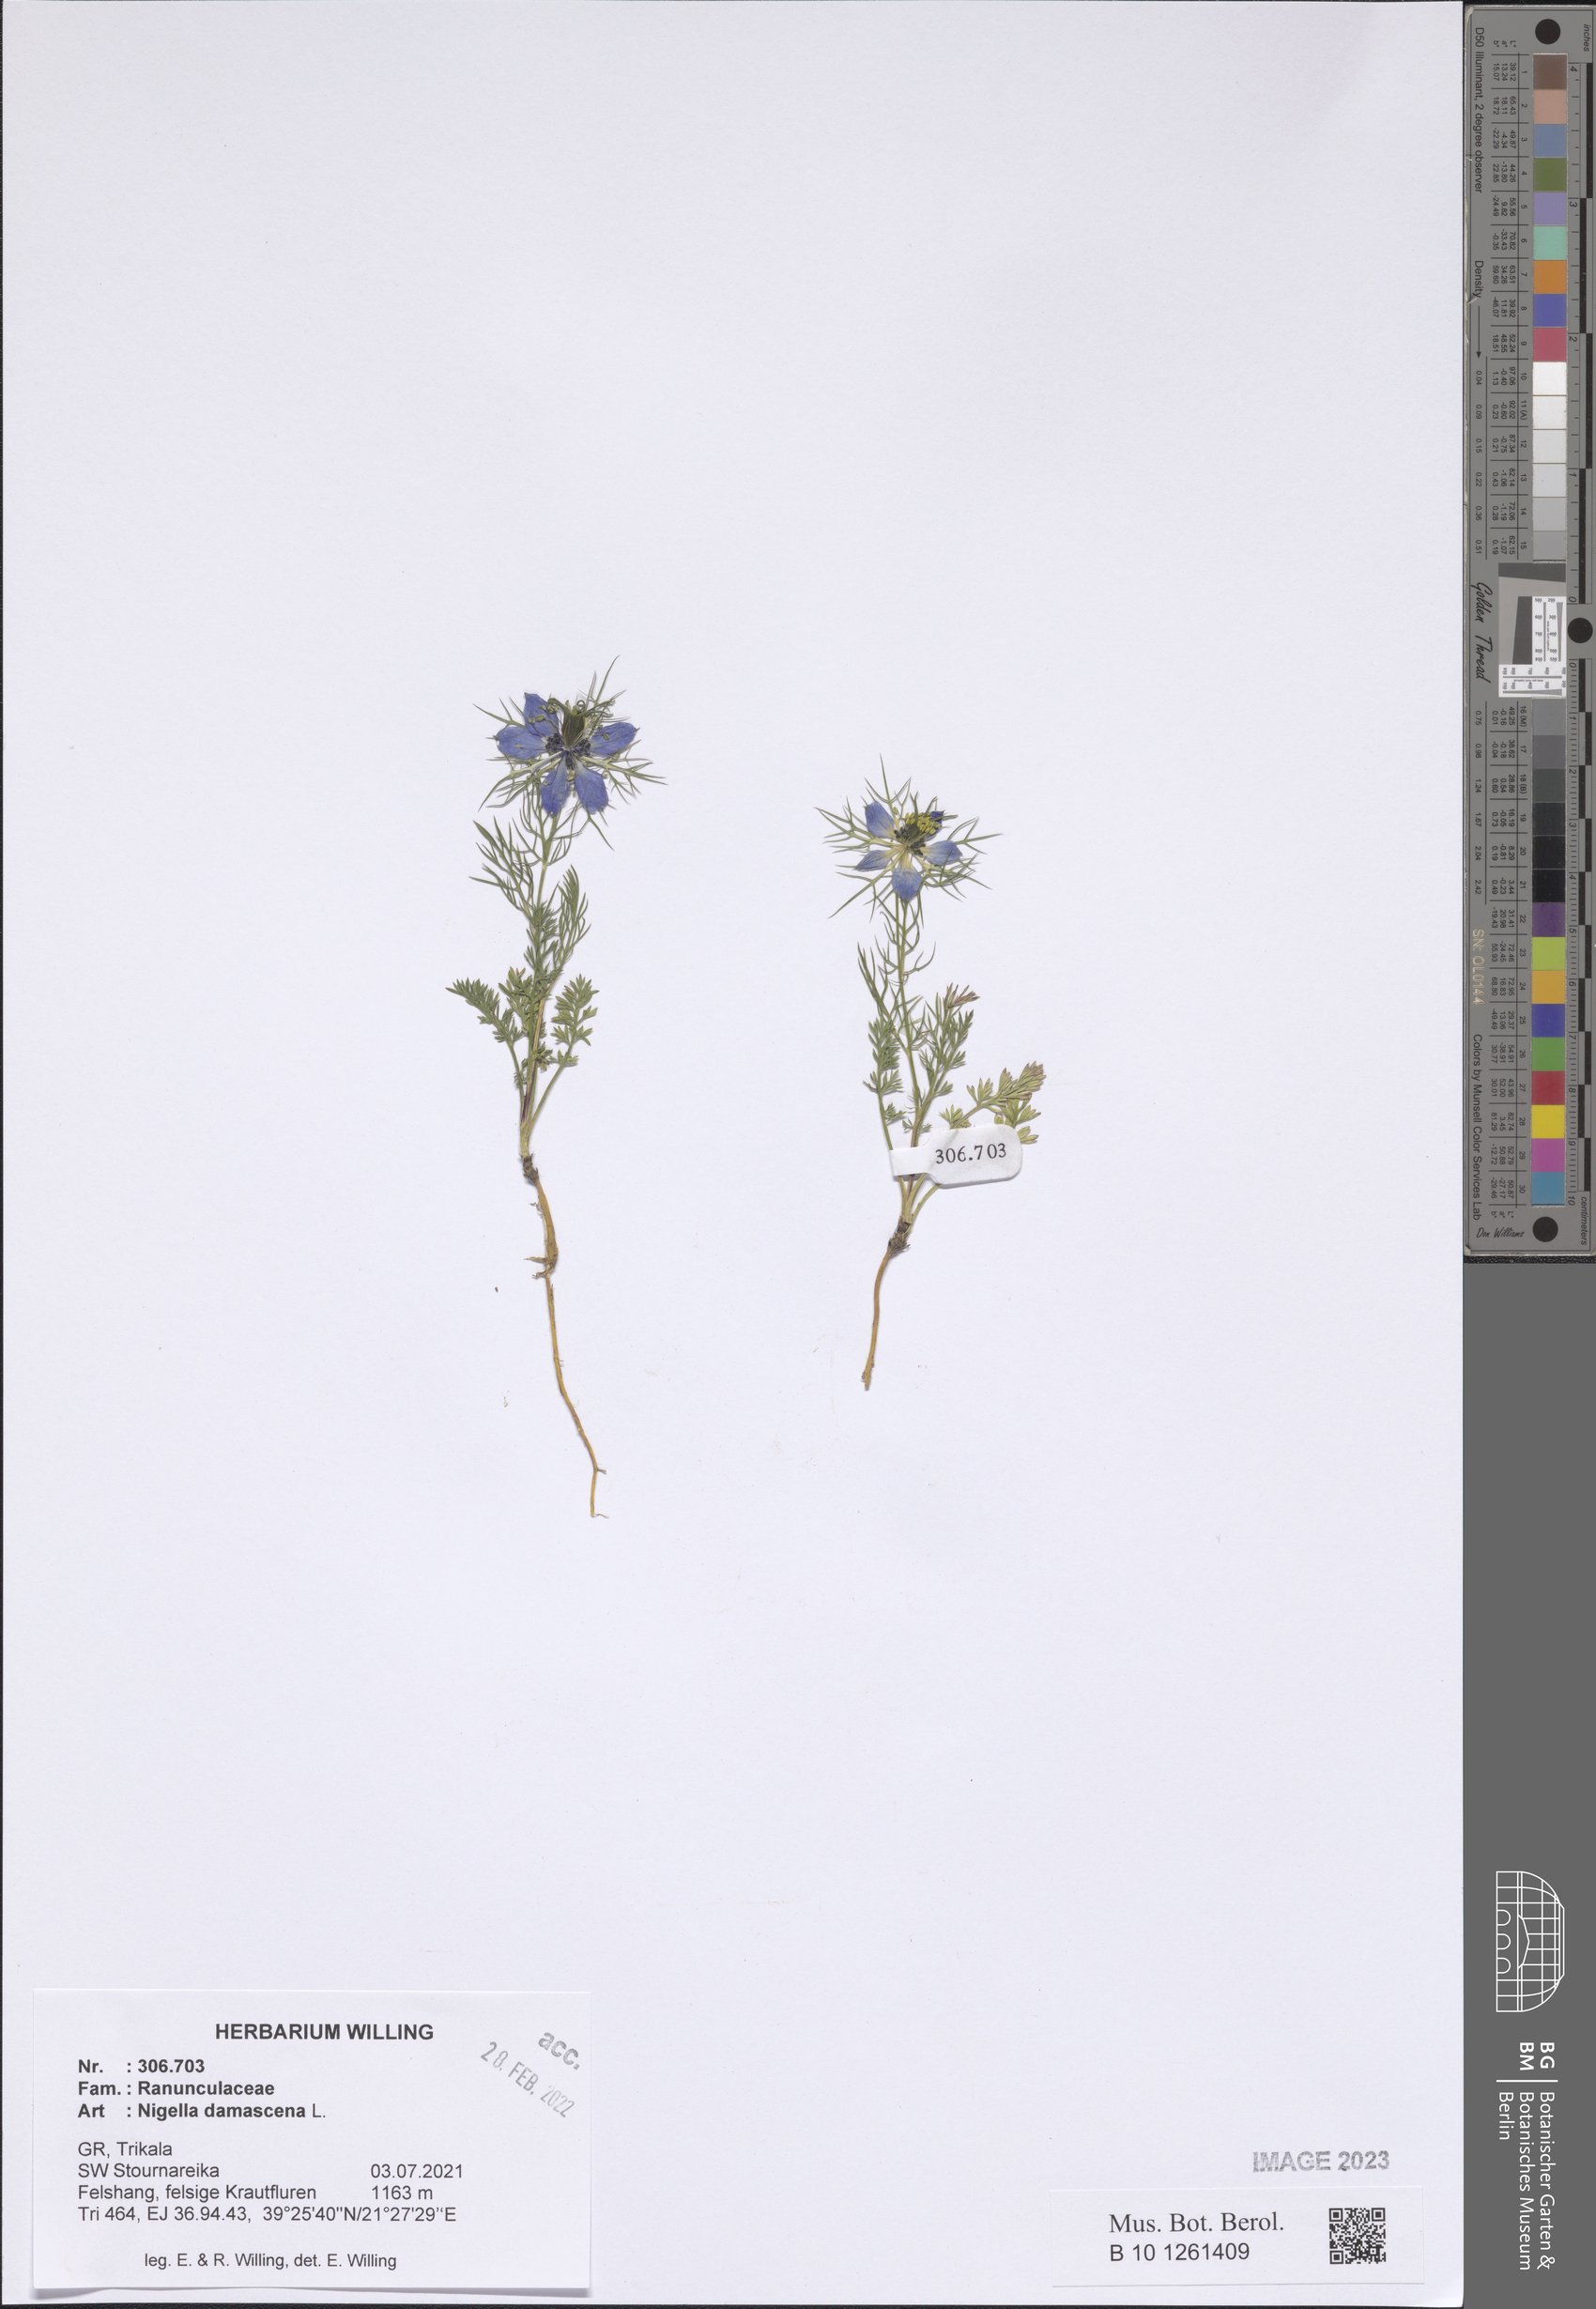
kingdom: Plantae
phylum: Tracheophyta
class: Magnoliopsida
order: Ranunculales
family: Ranunculaceae
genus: Nigella
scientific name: Nigella damascena
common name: Love-in-a-mist
